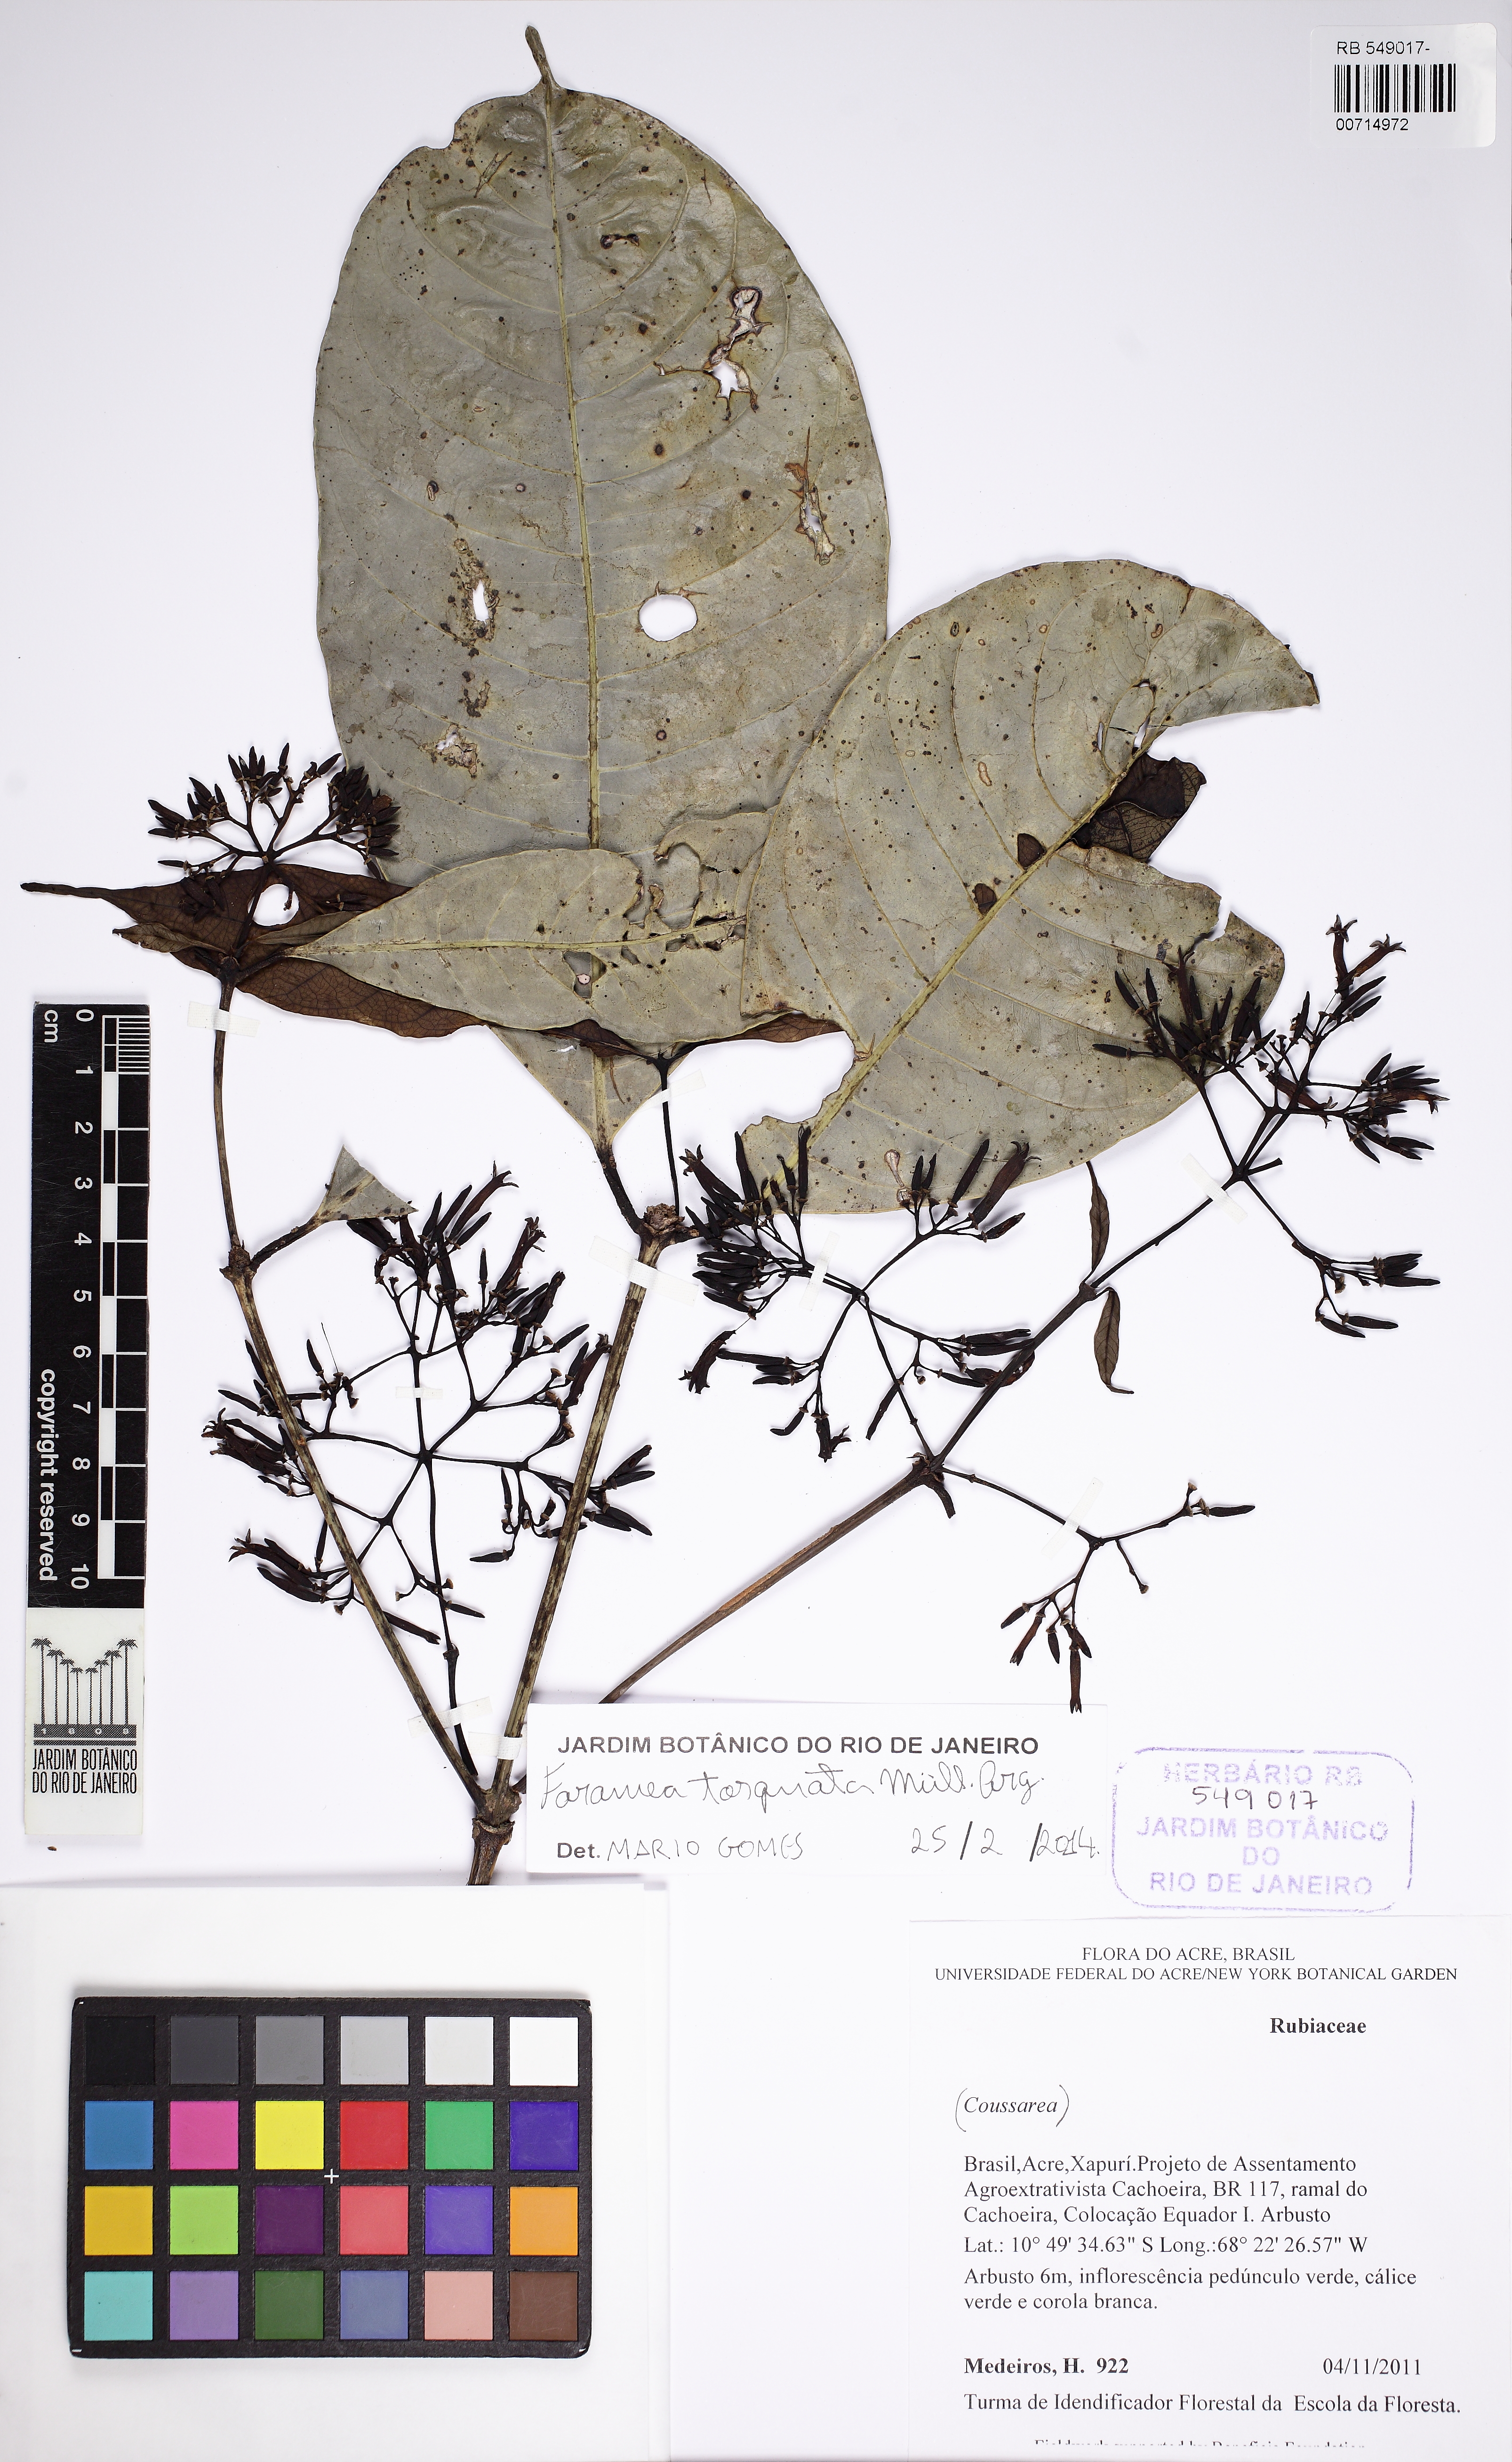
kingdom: Plantae
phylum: Tracheophyta
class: Magnoliopsida
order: Gentianales
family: Rubiaceae
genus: Faramea
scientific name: Faramea torquata
